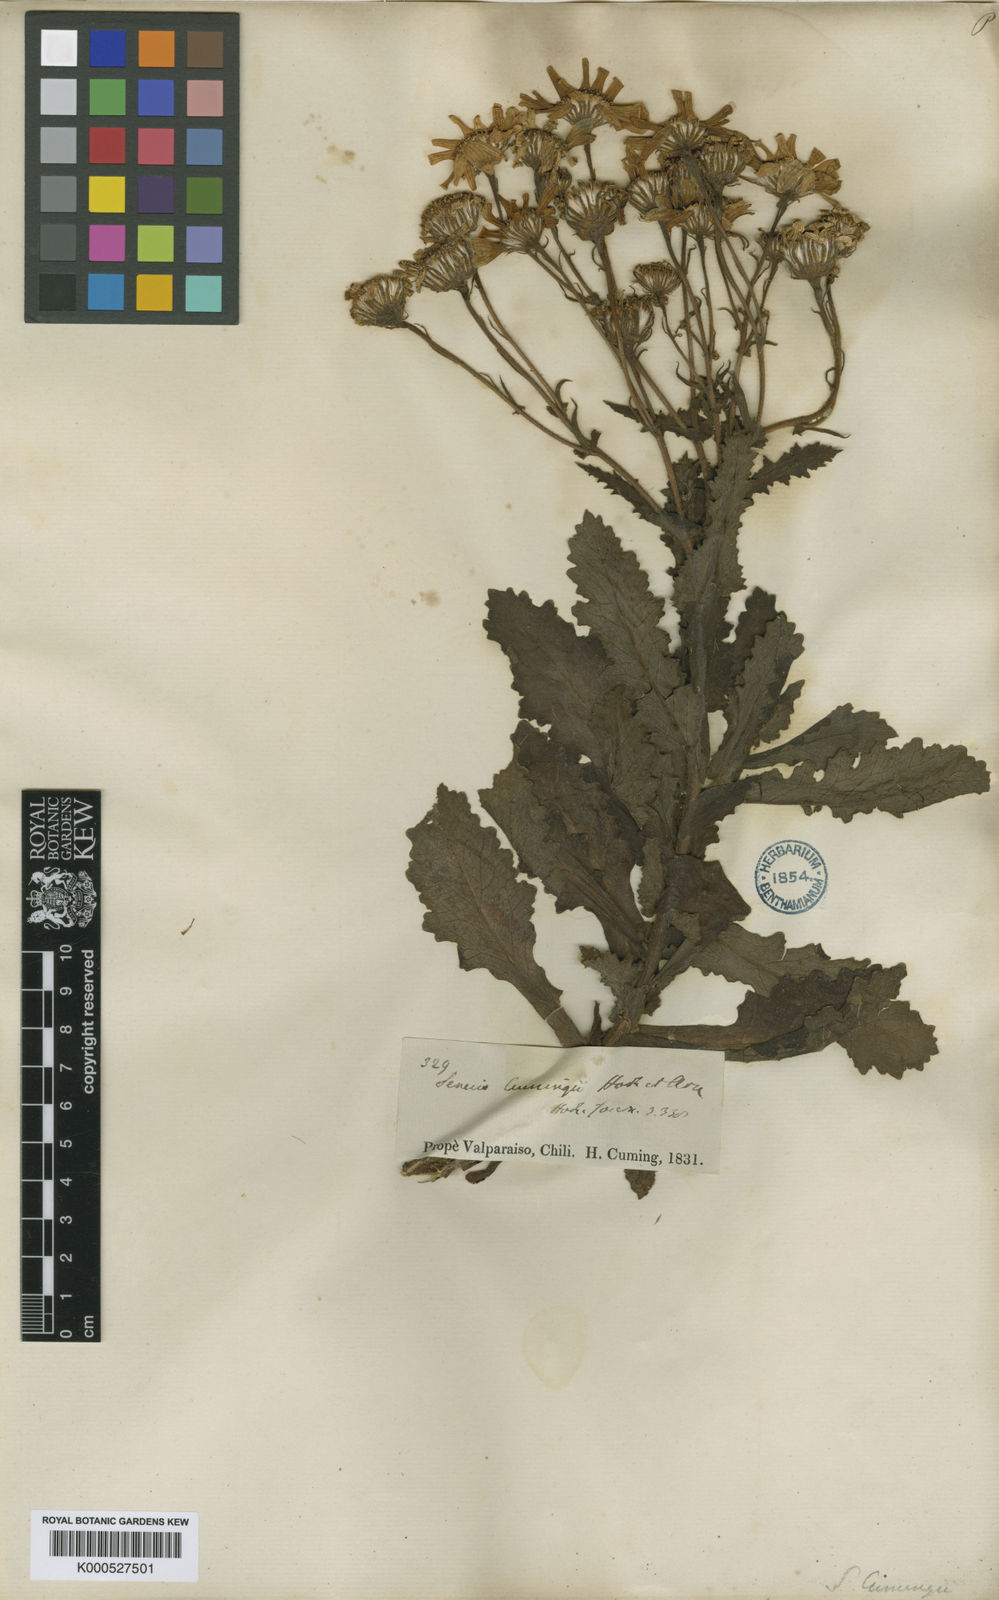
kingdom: Plantae
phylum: Tracheophyta
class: Magnoliopsida
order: Asterales
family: Asteraceae
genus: Senecio
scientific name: Senecio cumingii
